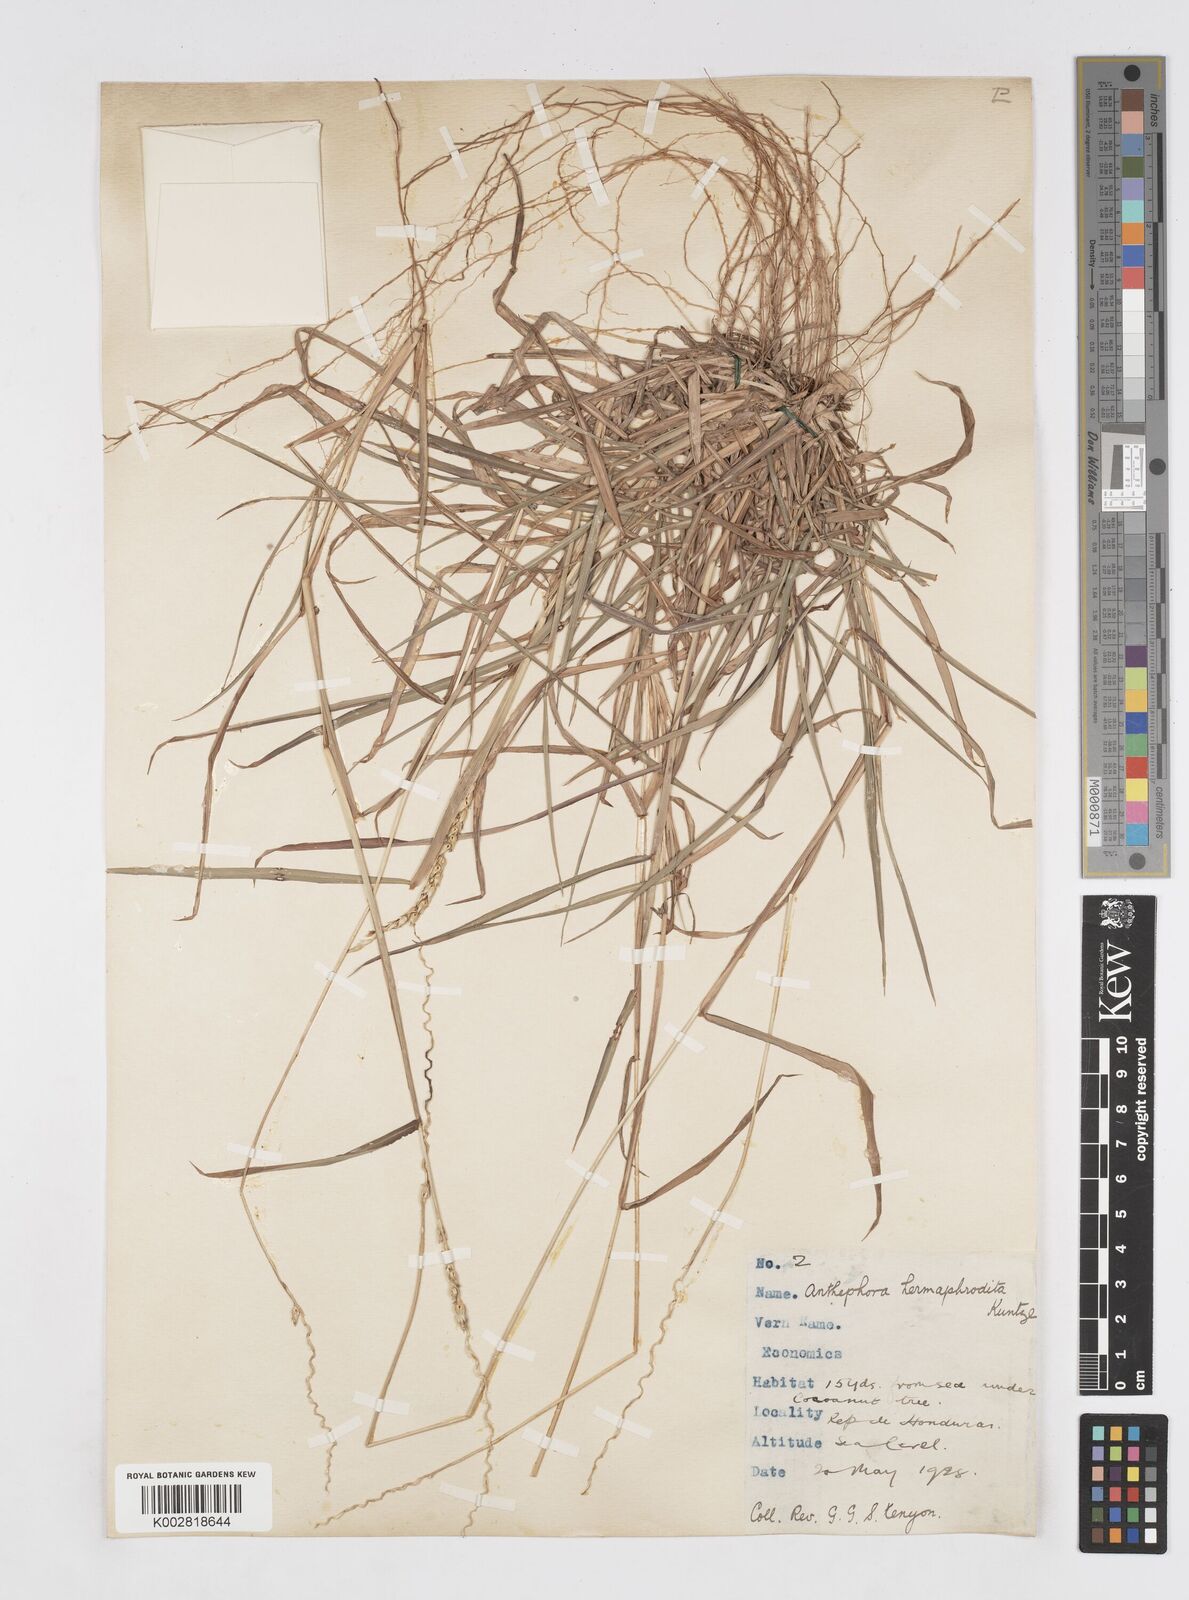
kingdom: Plantae
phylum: Tracheophyta
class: Liliopsida
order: Poales
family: Poaceae
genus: Anthephora
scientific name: Anthephora hermaphrodita
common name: Oldfield grass
